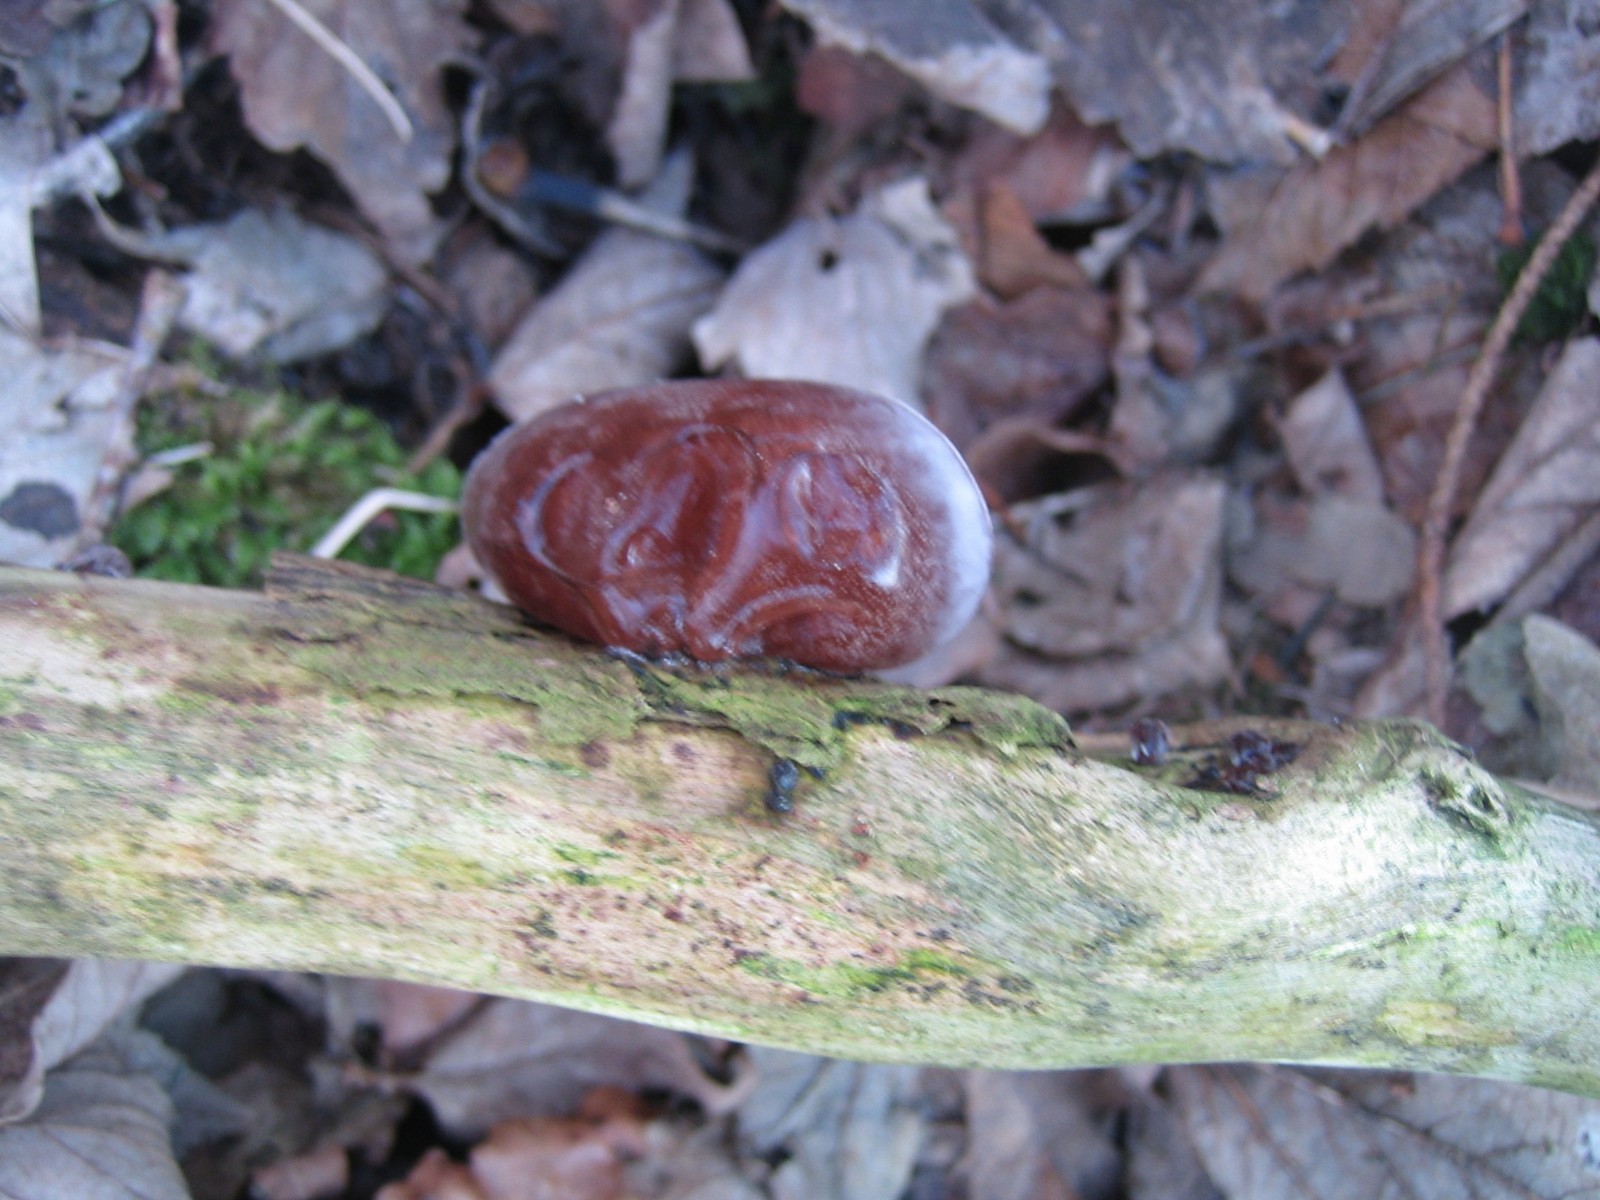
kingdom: Fungi
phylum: Basidiomycota
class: Agaricomycetes
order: Auriculariales
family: Auriculariaceae
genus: Auricularia
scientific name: Auricularia auricula-judae
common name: almindelig judasøre
